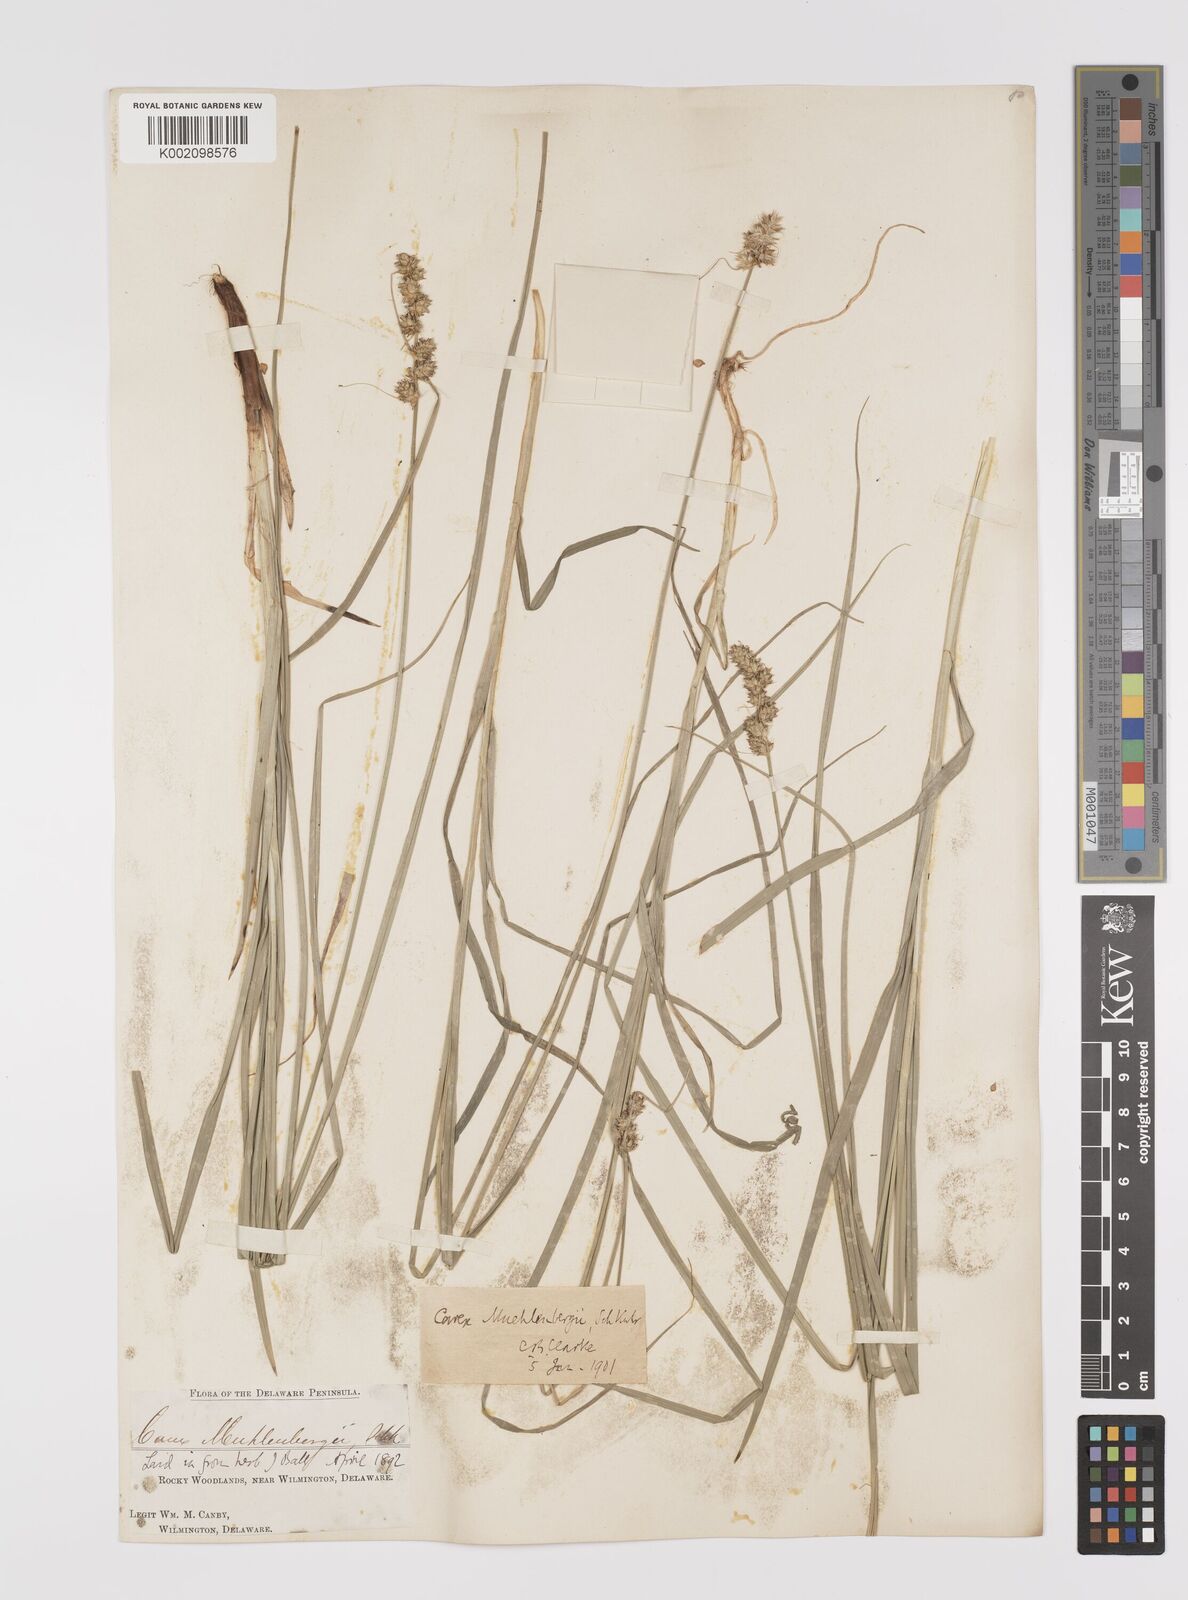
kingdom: Plantae
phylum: Tracheophyta
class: Liliopsida
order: Poales
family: Cyperaceae
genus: Carex
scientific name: Carex vulpinoidea
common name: American fox-sedge
